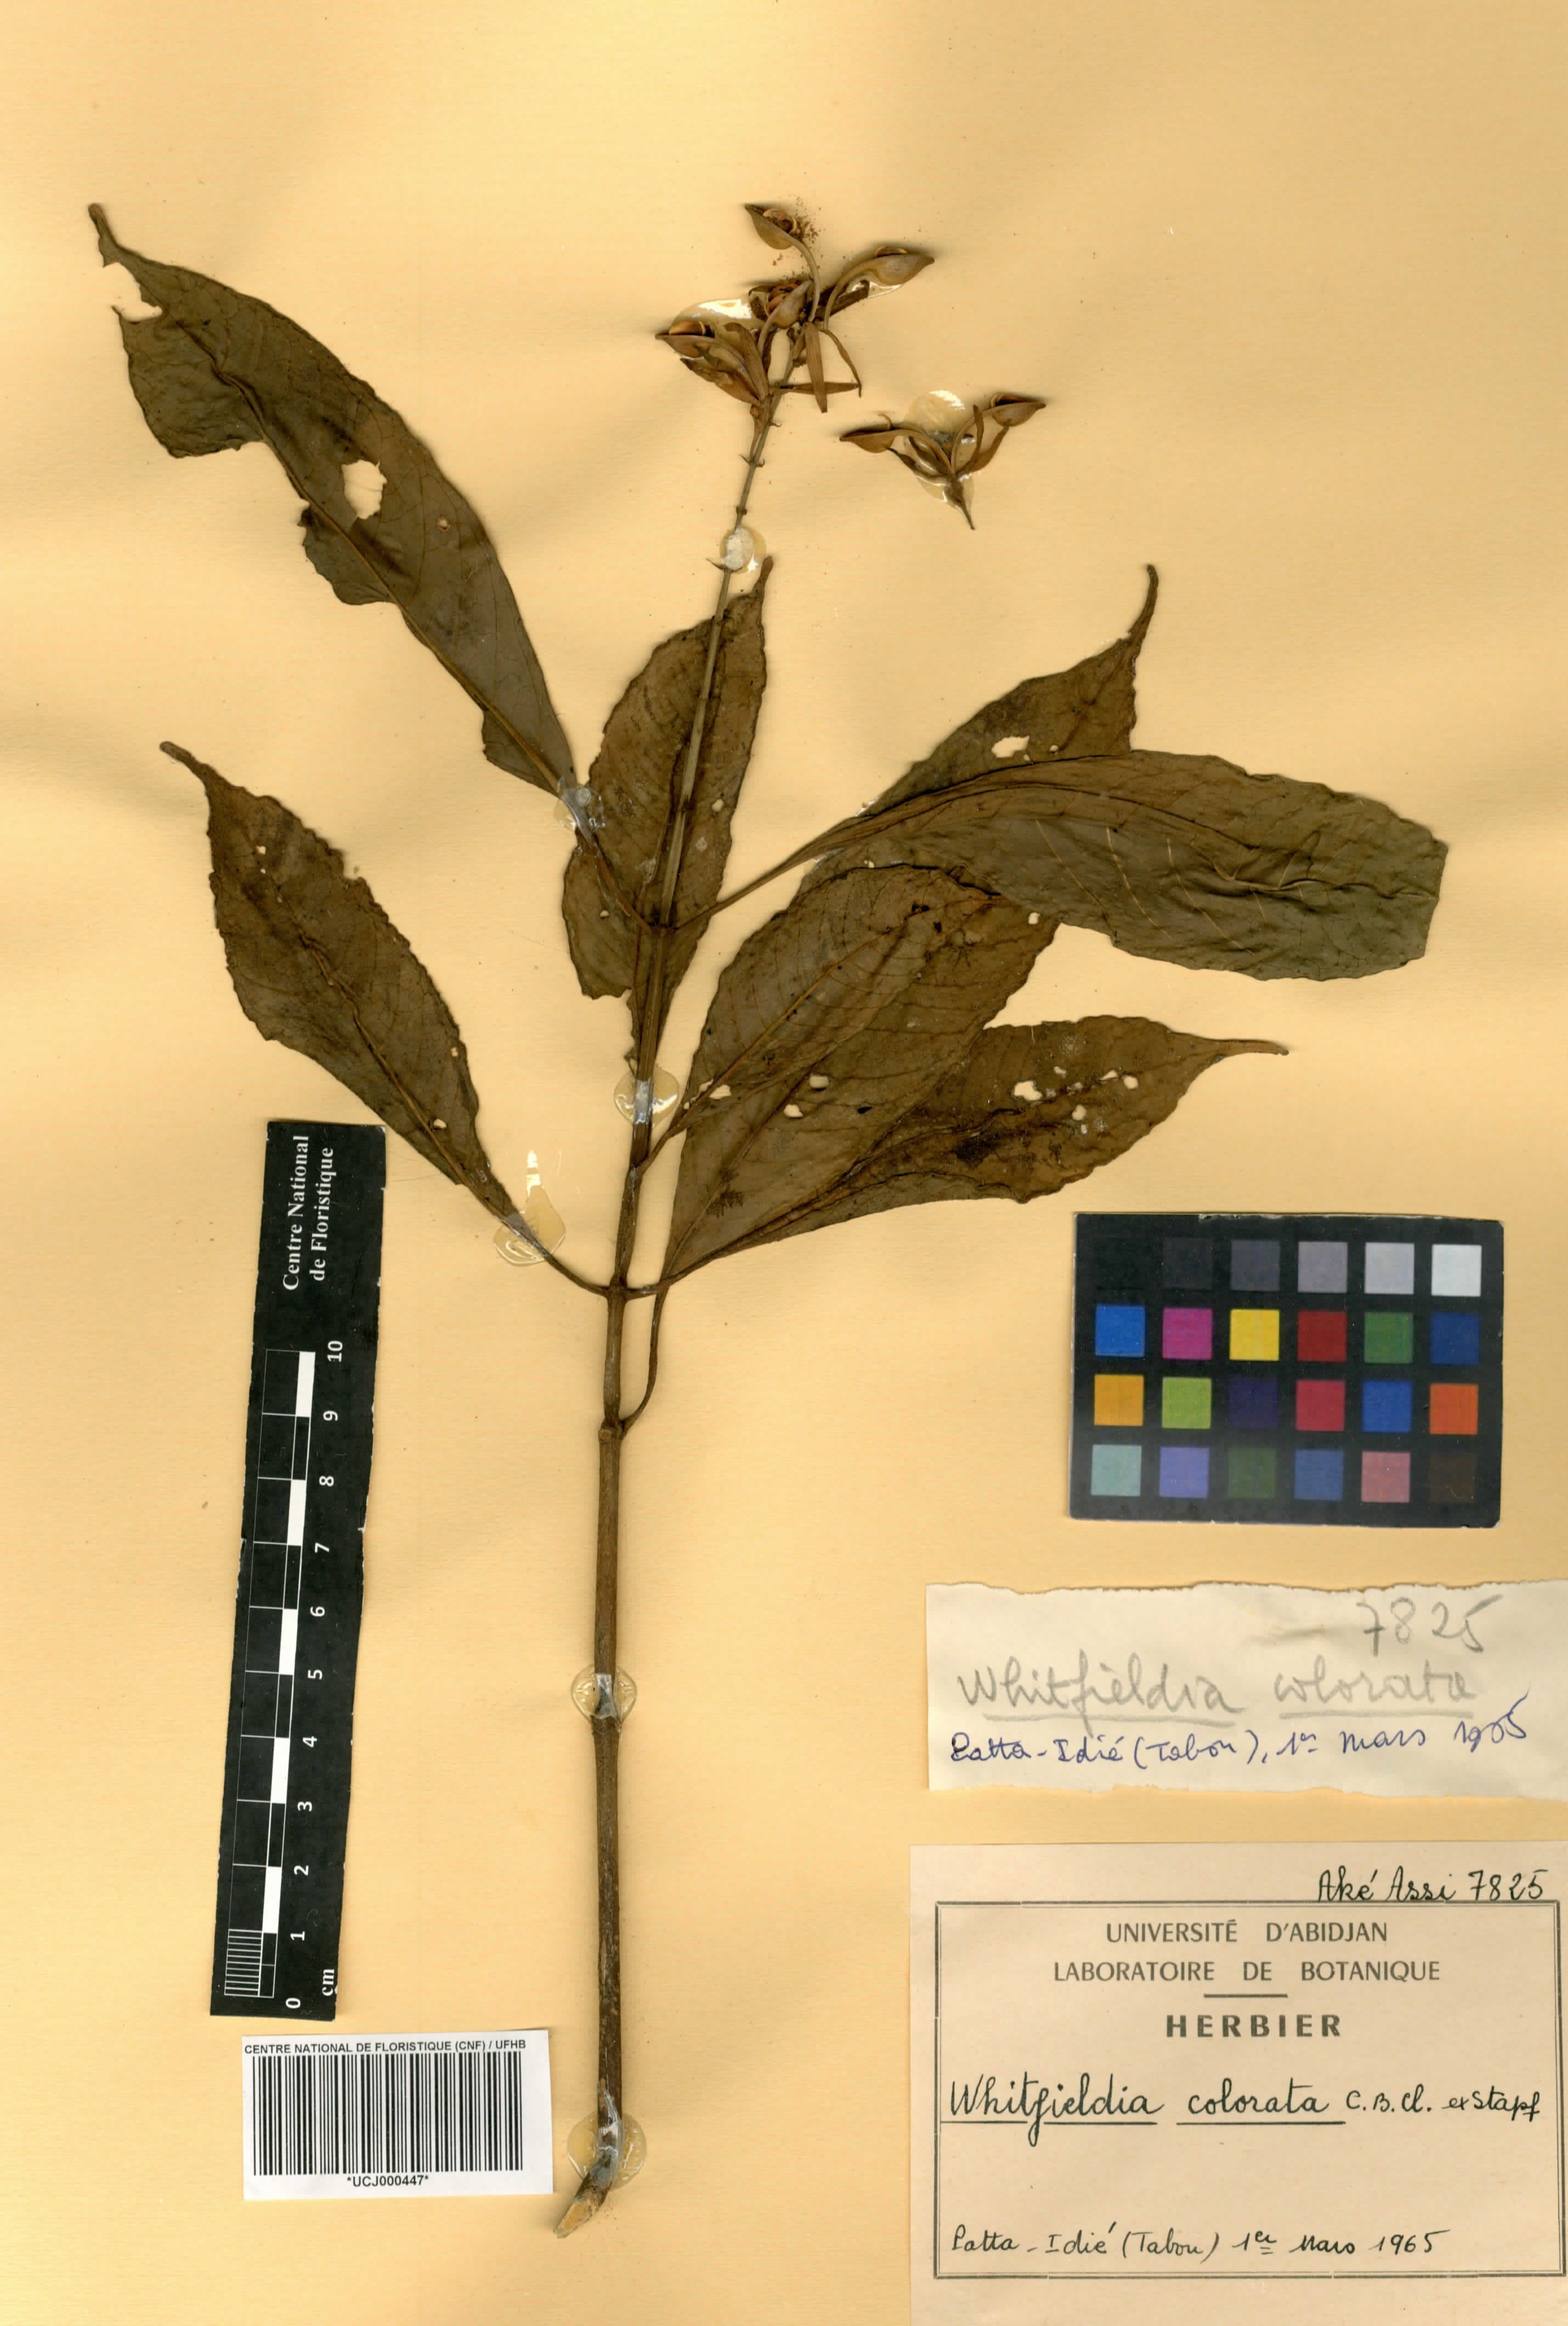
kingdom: Plantae
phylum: Tracheophyta
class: Magnoliopsida
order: Lamiales
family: Acanthaceae
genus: Whitfieldia
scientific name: Whitfieldia colorata
